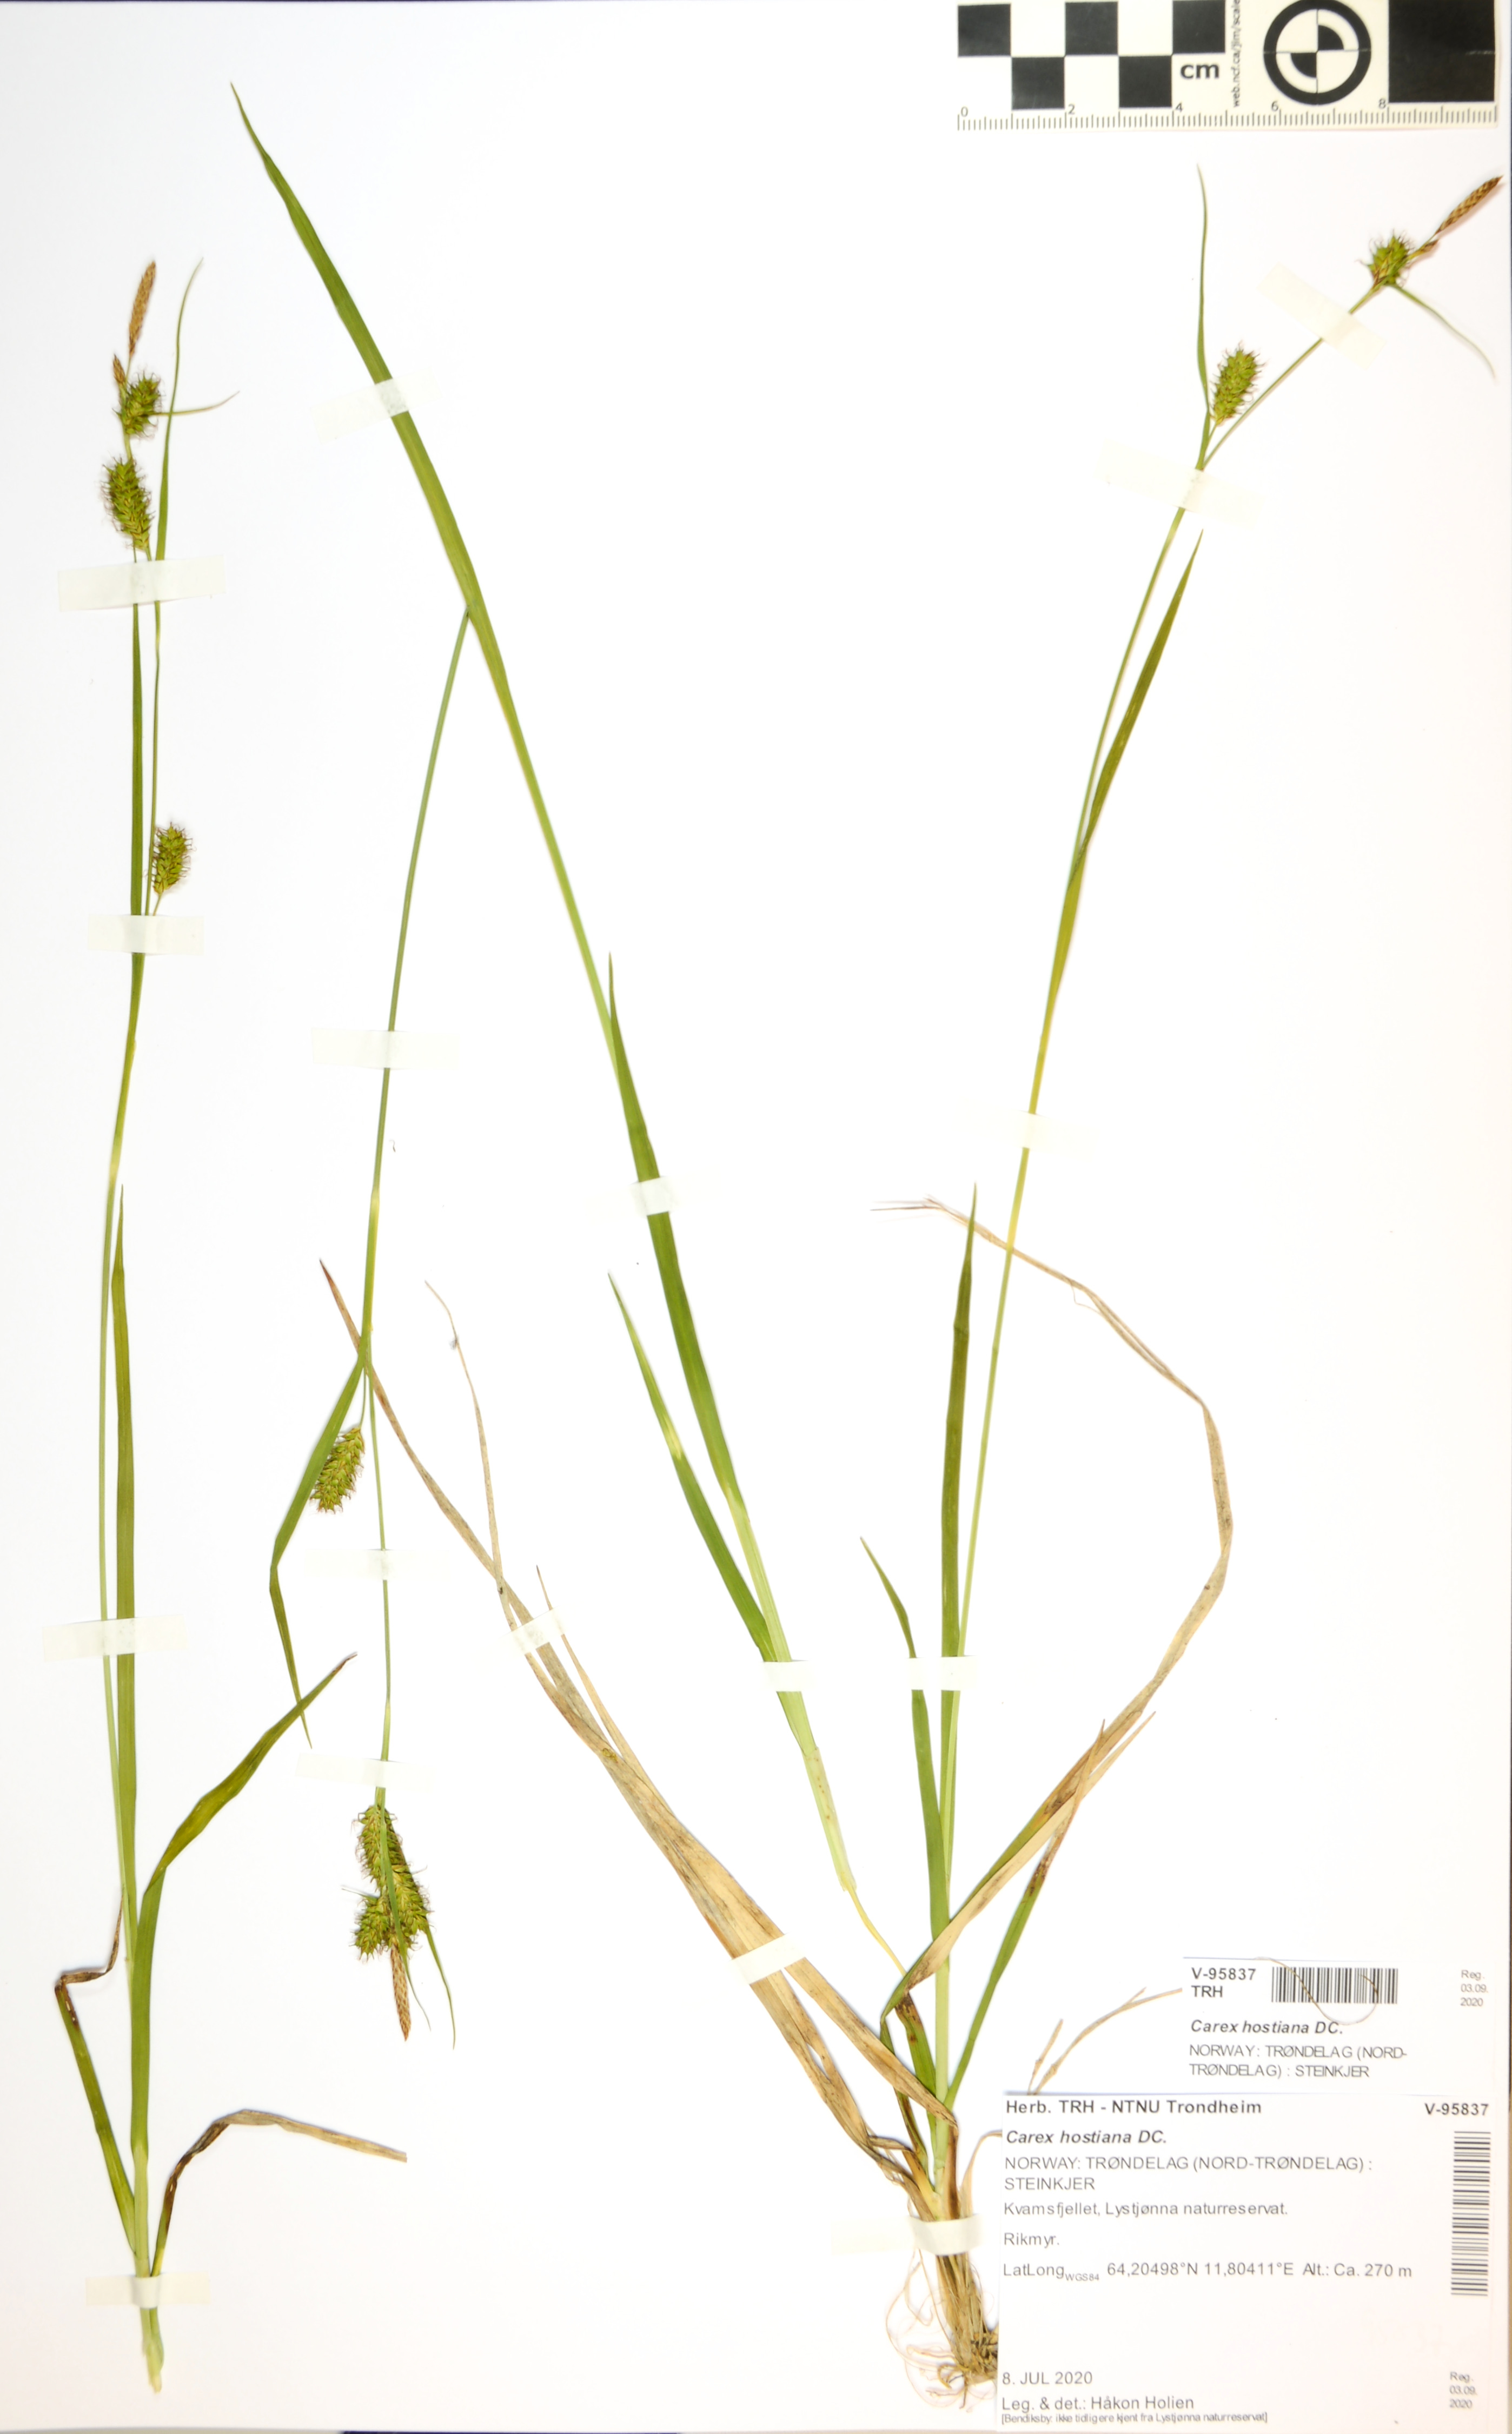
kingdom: Plantae
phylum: Tracheophyta
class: Liliopsida
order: Poales
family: Cyperaceae
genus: Carex
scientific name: Carex hostiana
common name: Tawny sedge
